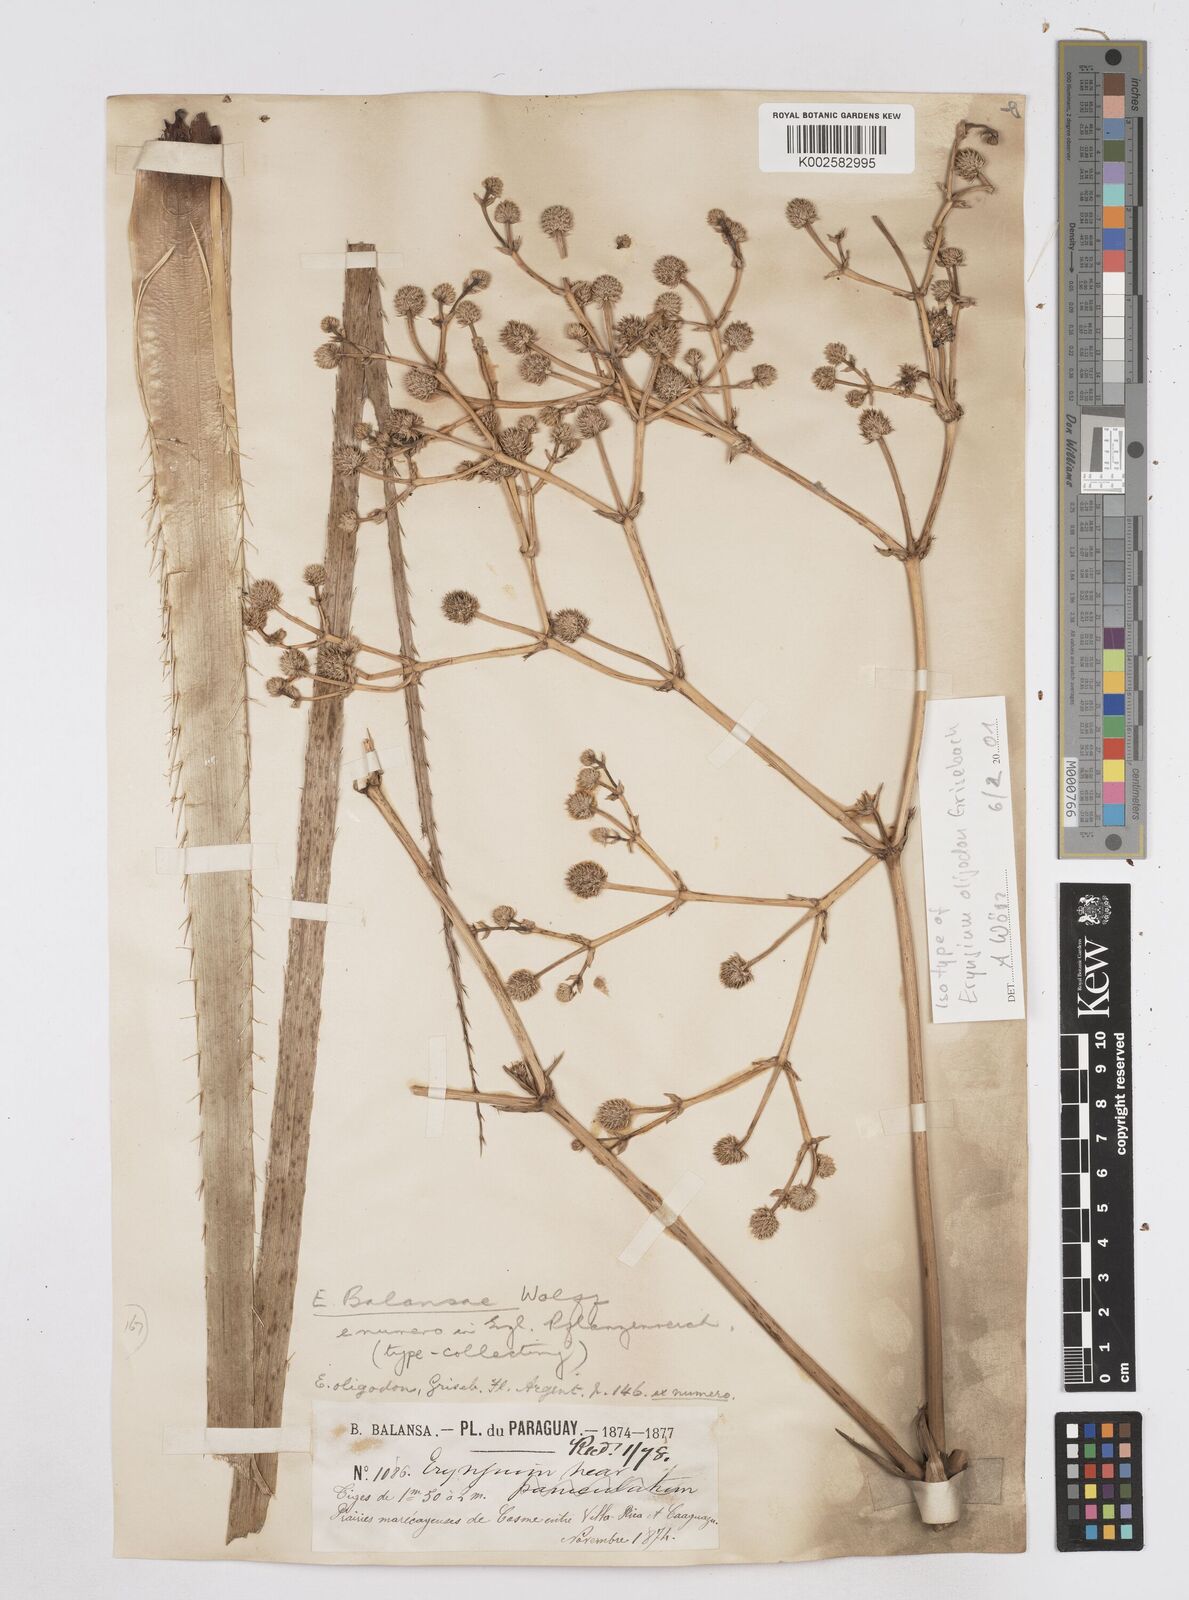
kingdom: Plantae
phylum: Tracheophyta
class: Magnoliopsida
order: Apiales
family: Apiaceae
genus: Eryngium
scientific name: Eryngium balansae
